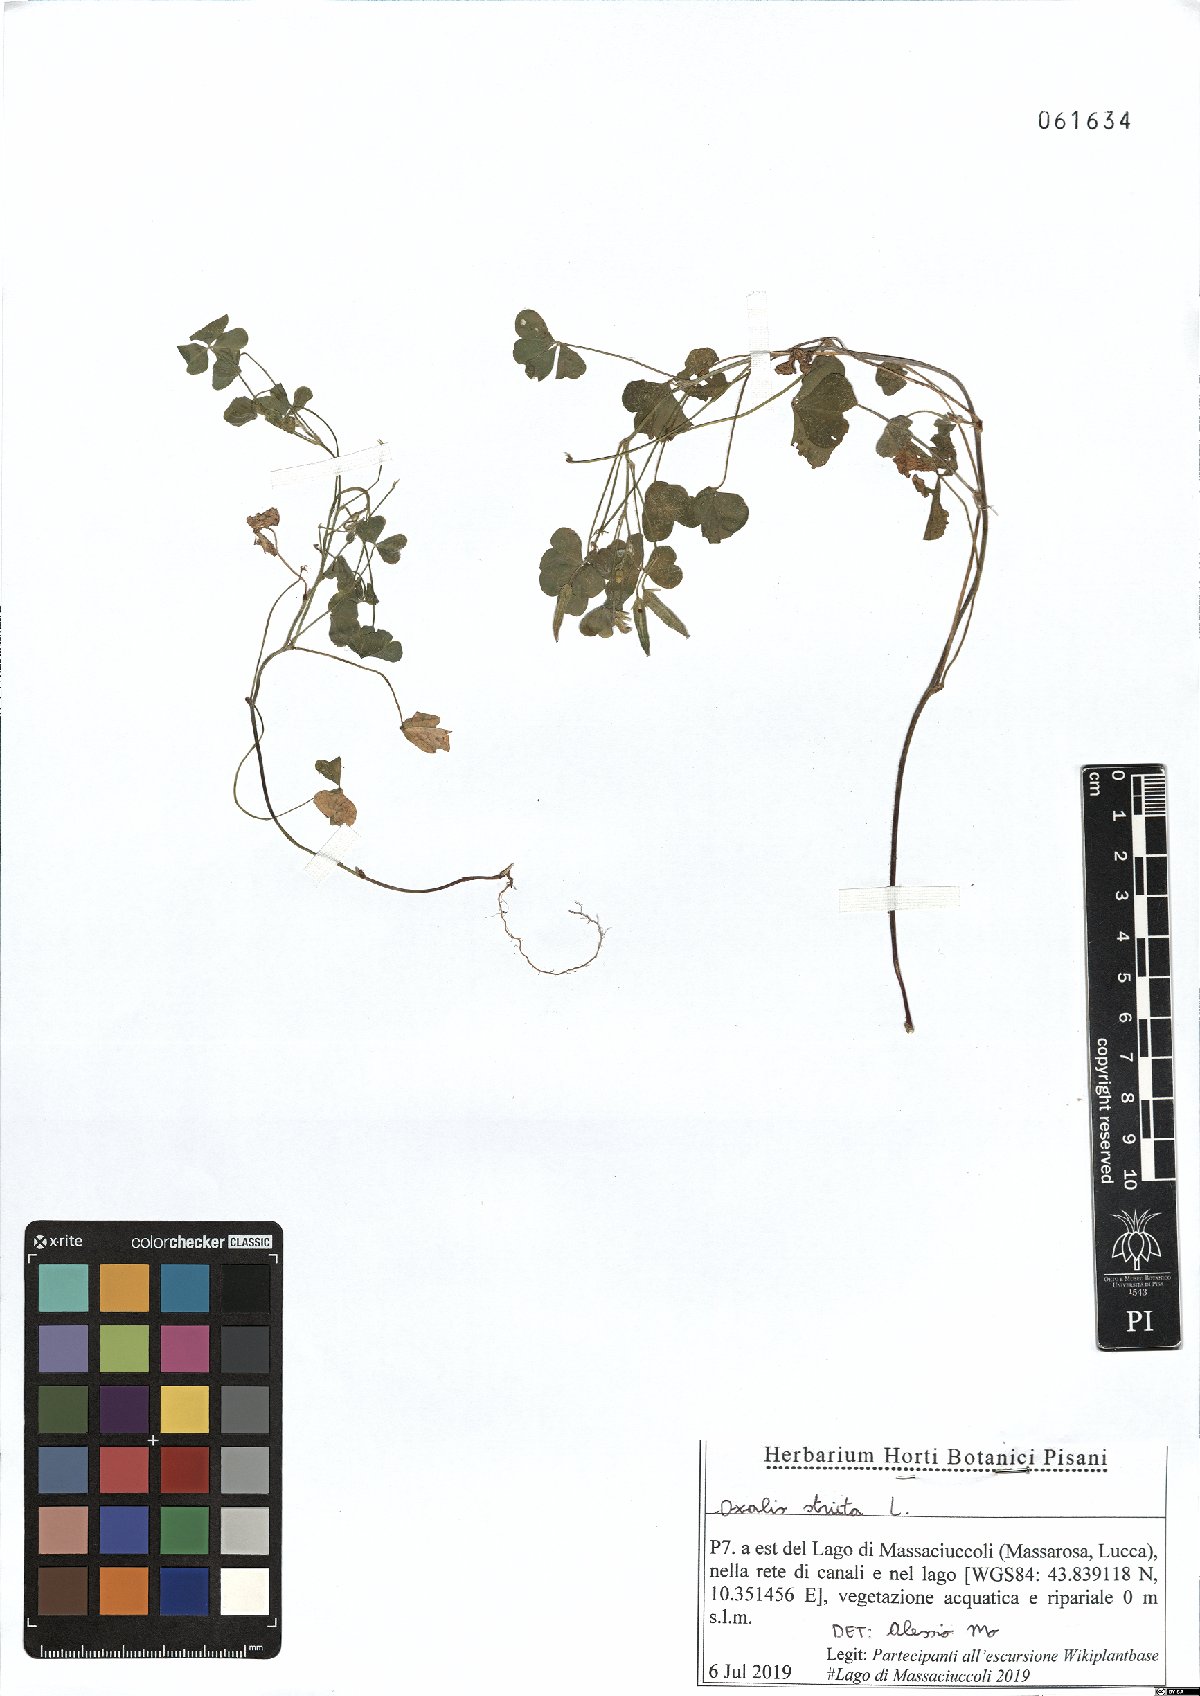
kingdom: Plantae
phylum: Tracheophyta
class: Magnoliopsida
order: Oxalidales
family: Oxalidaceae
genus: Oxalis
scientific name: Oxalis stricta
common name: Upright yellow-sorrel
